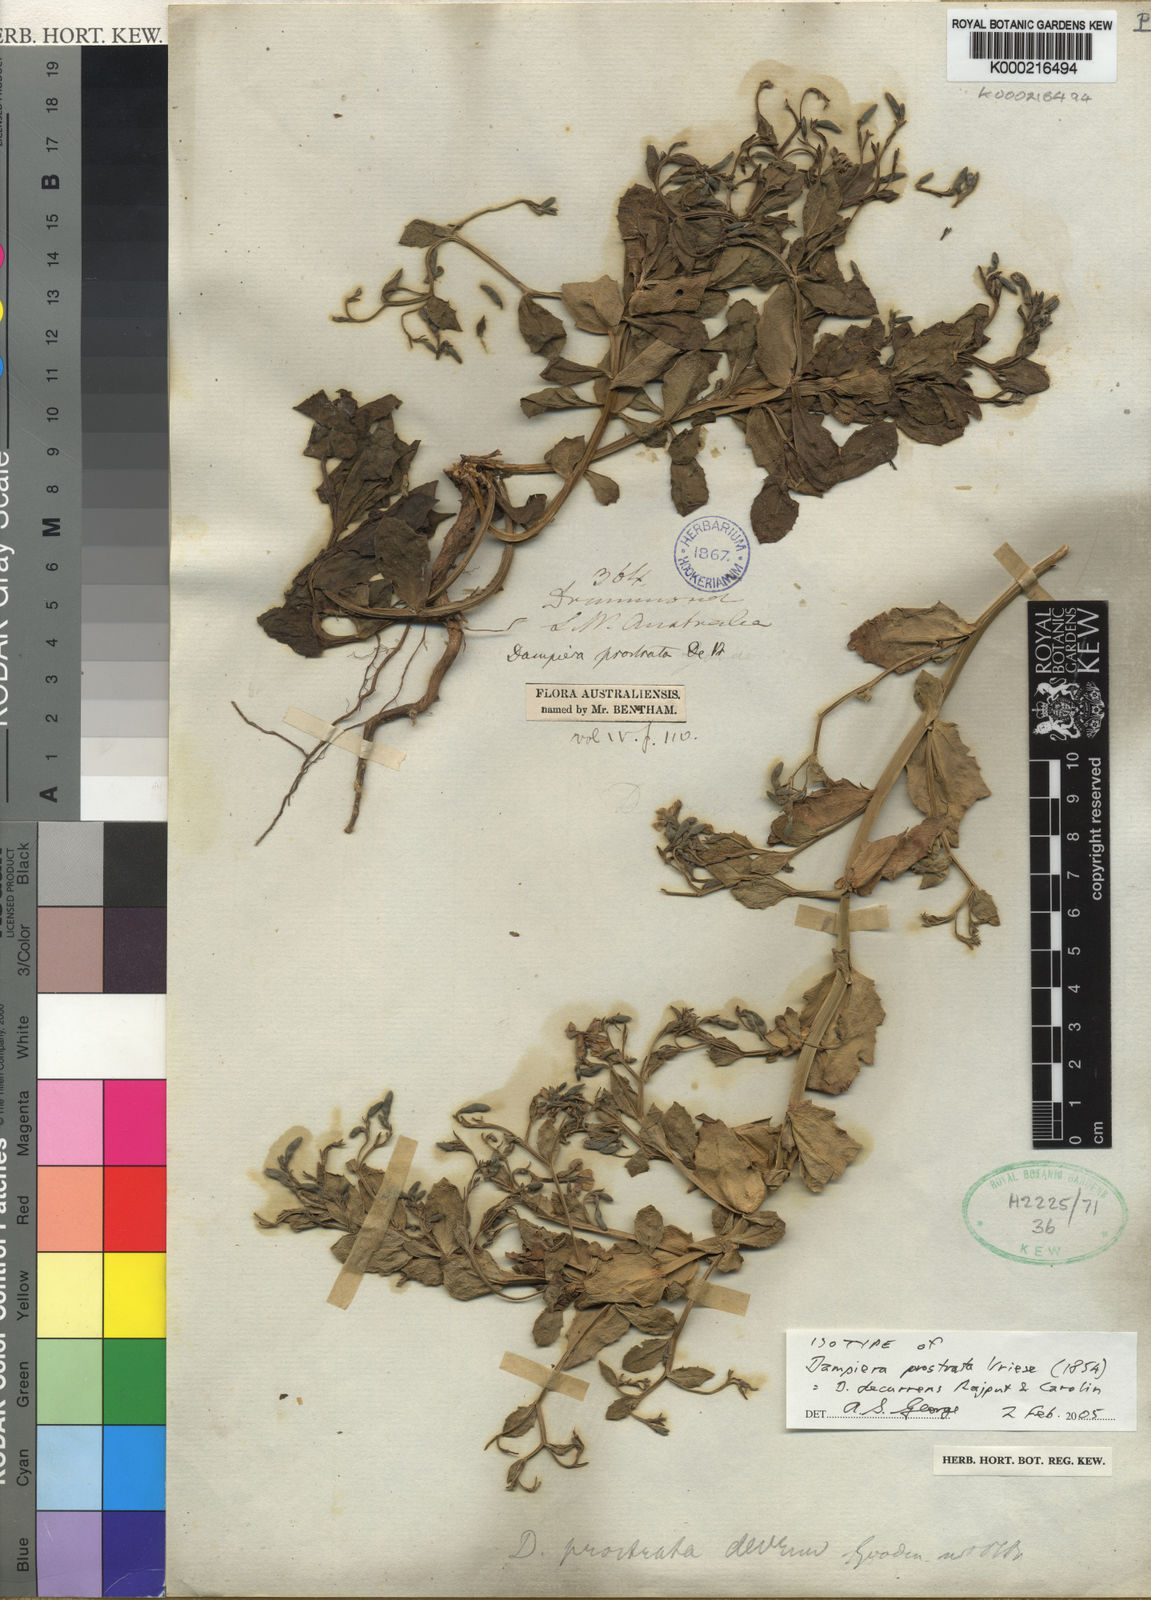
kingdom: Plantae
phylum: Tracheophyta
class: Magnoliopsida
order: Asterales
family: Goodeniaceae
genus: Dampiera
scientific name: Dampiera decurrens
